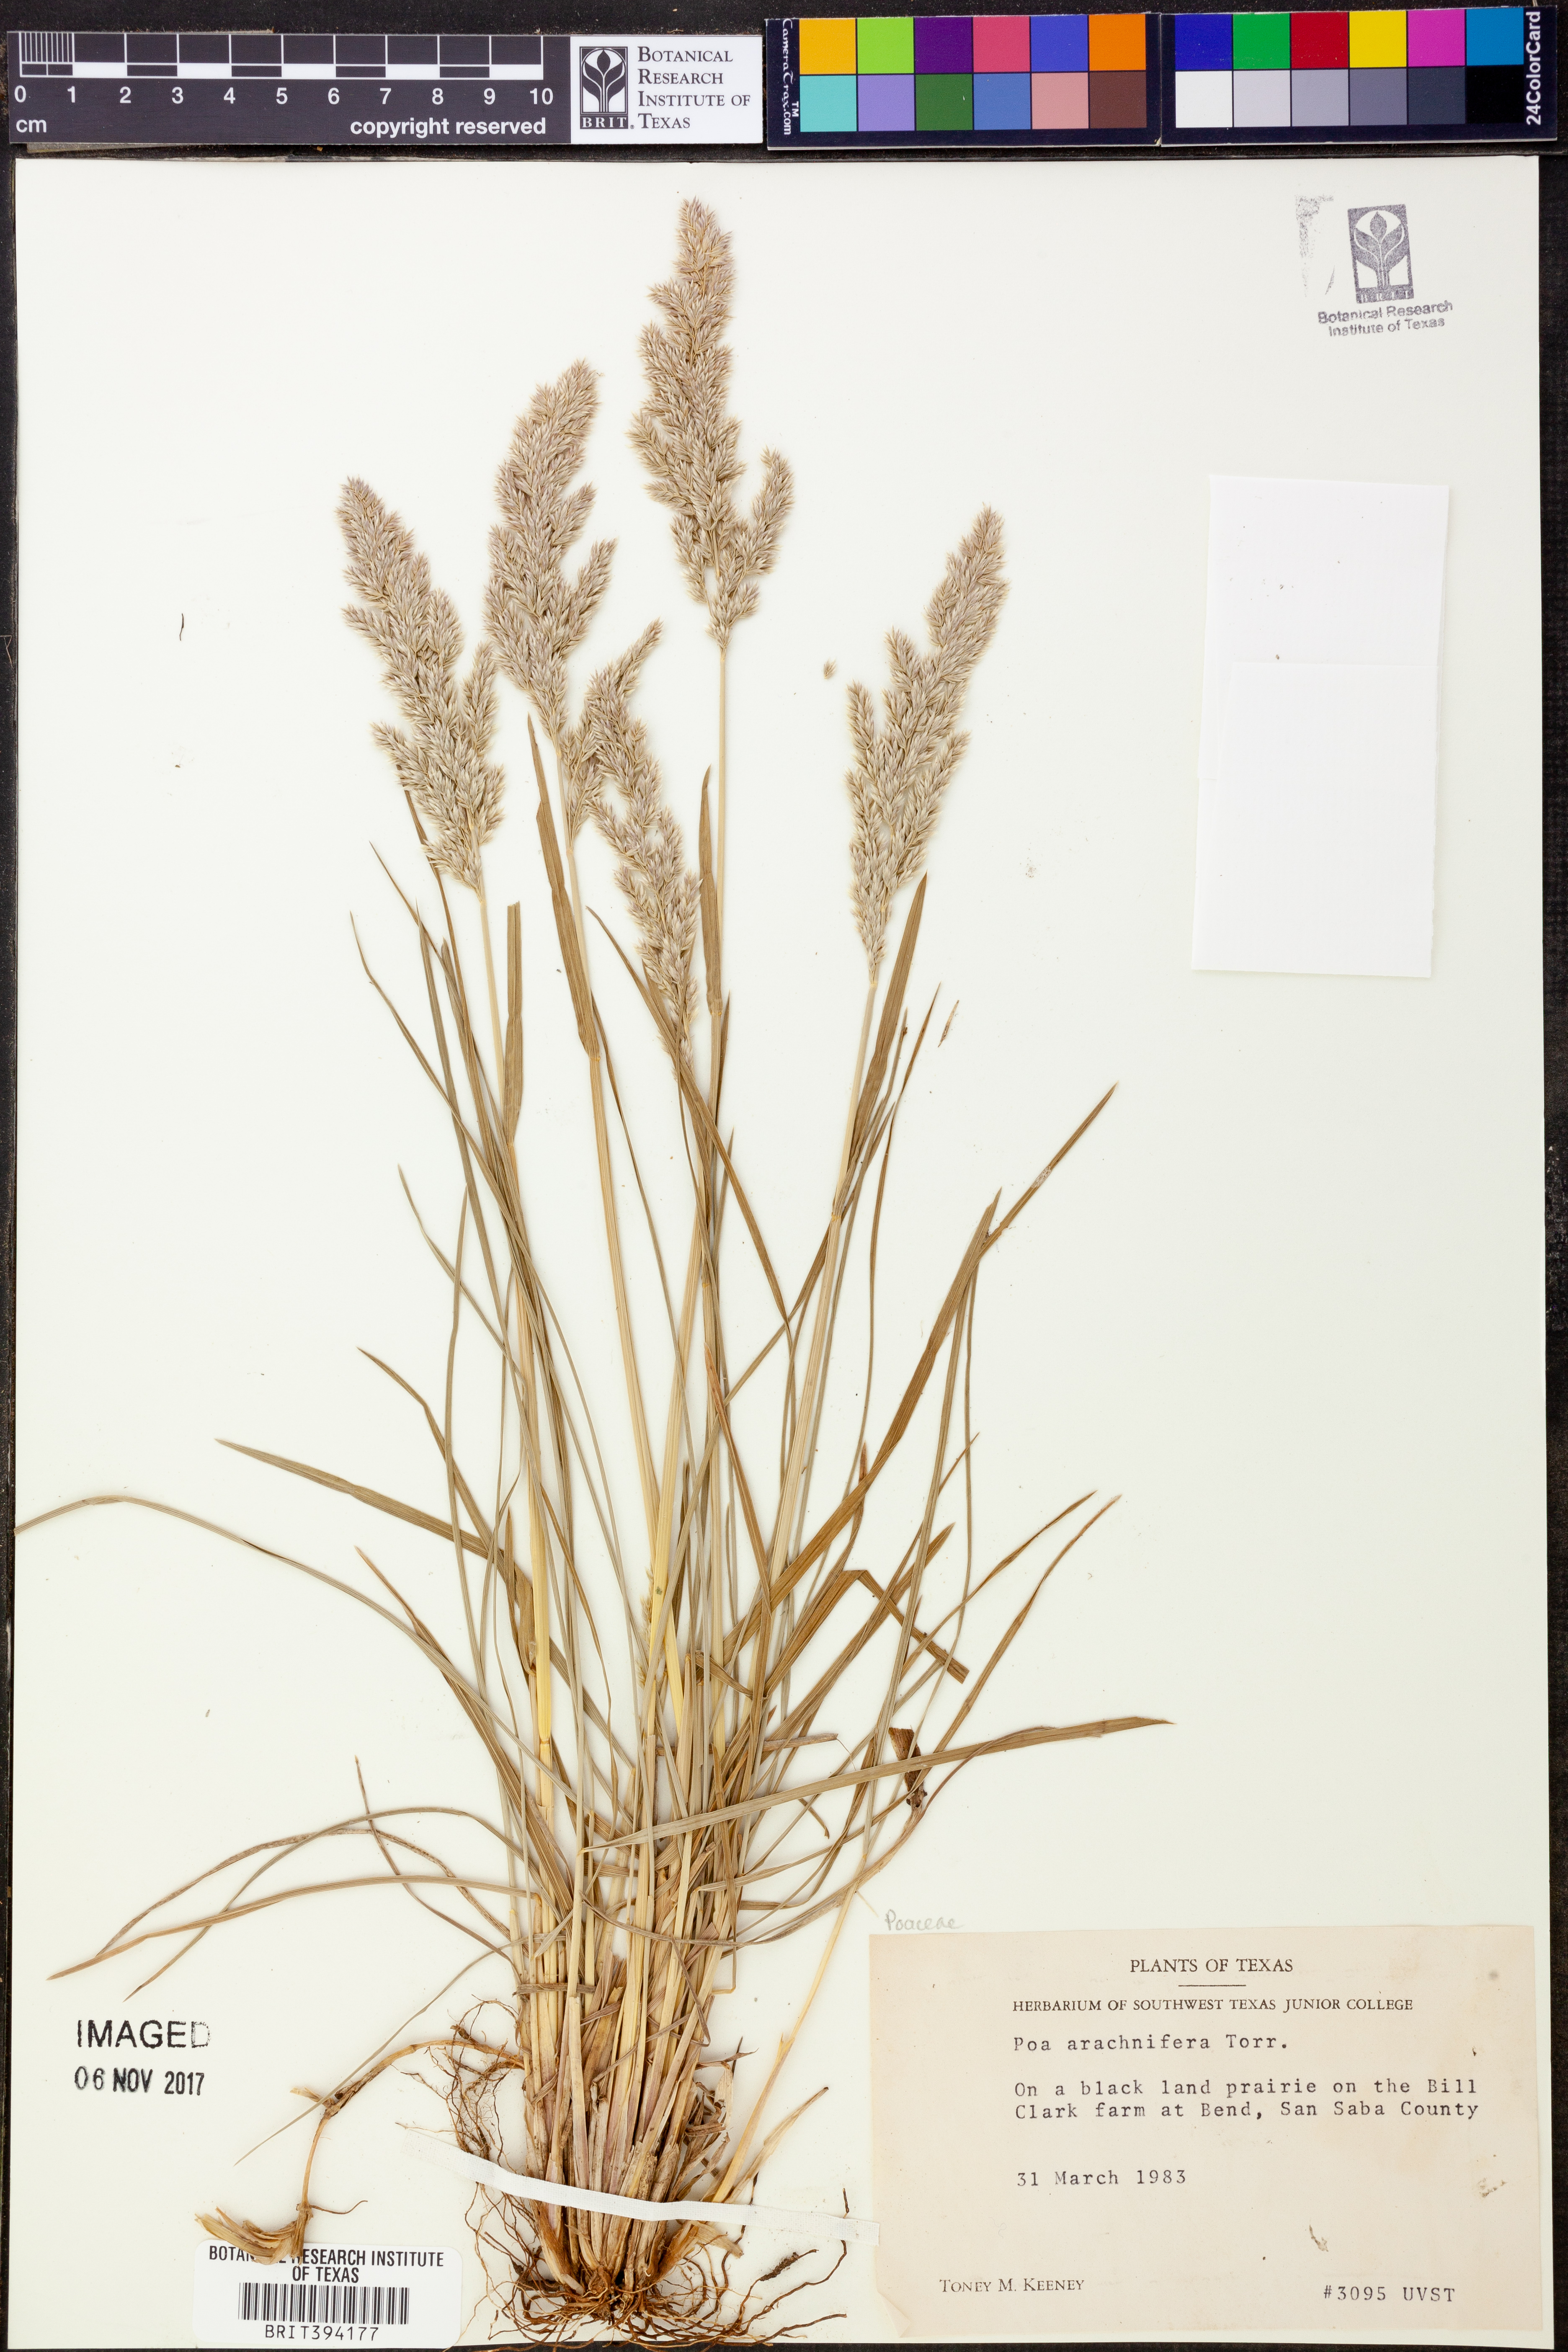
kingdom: Plantae
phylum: Tracheophyta
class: Liliopsida
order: Poales
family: Poaceae
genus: Poa
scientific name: Poa arachnifera
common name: Texas bluegrass
